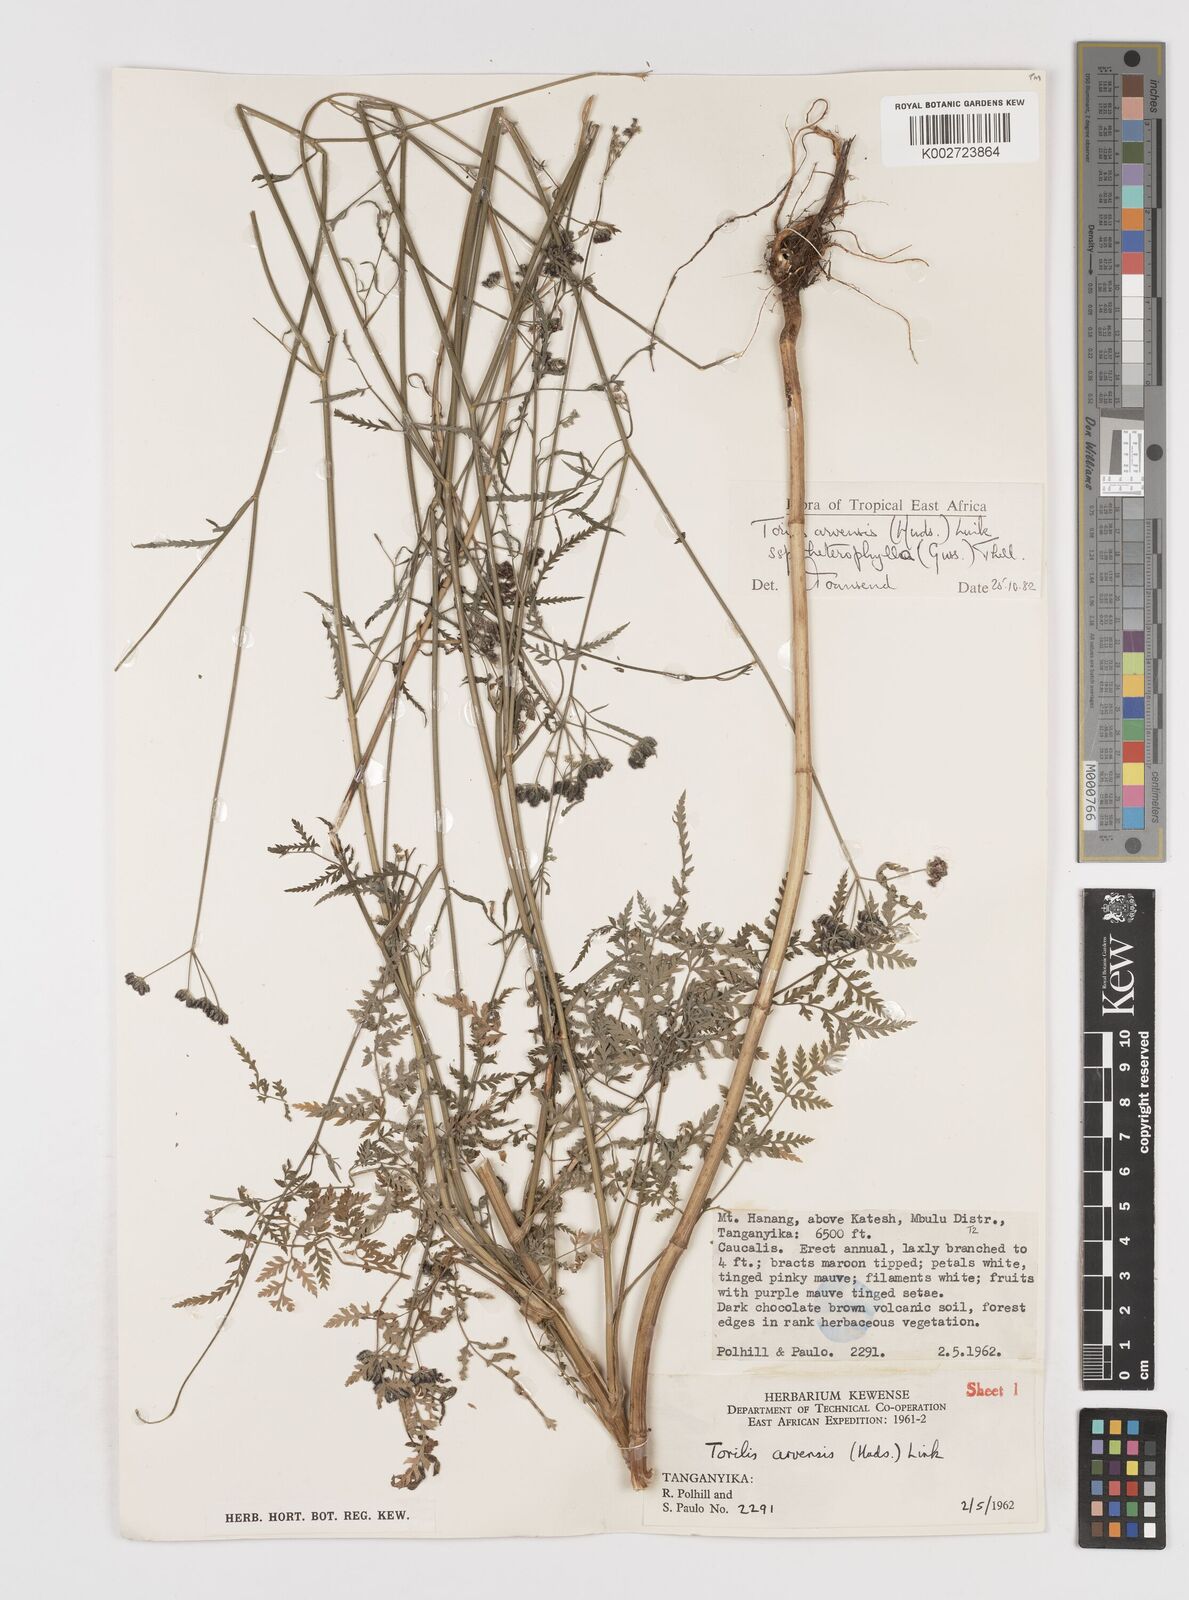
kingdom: Plantae
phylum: Tracheophyta
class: Magnoliopsida
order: Apiales
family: Apiaceae
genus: Torilis
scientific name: Torilis arvensis
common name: Spreading hedge-parsley
